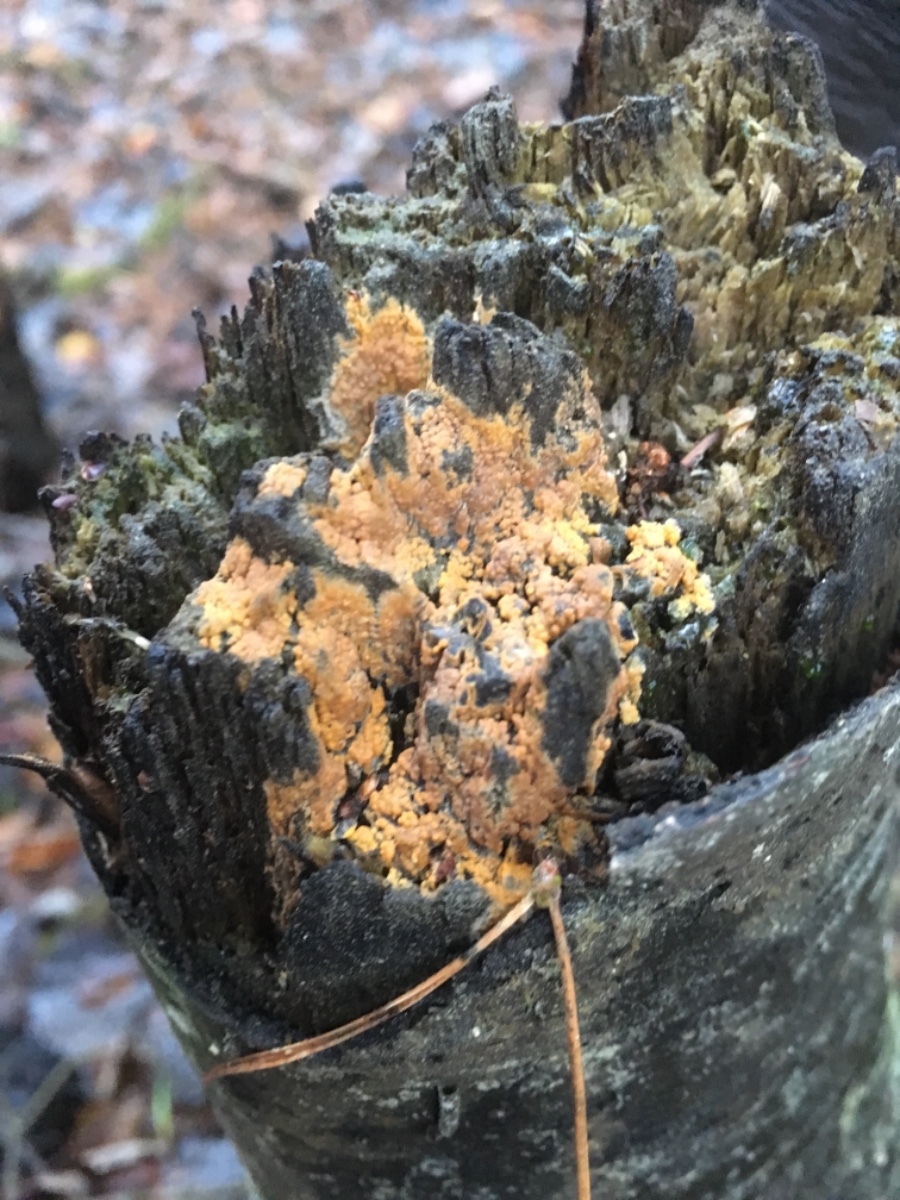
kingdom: Fungi
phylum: Basidiomycota
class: Agaricomycetes
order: Corticiales
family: Corticiaceae
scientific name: Corticiaceae
